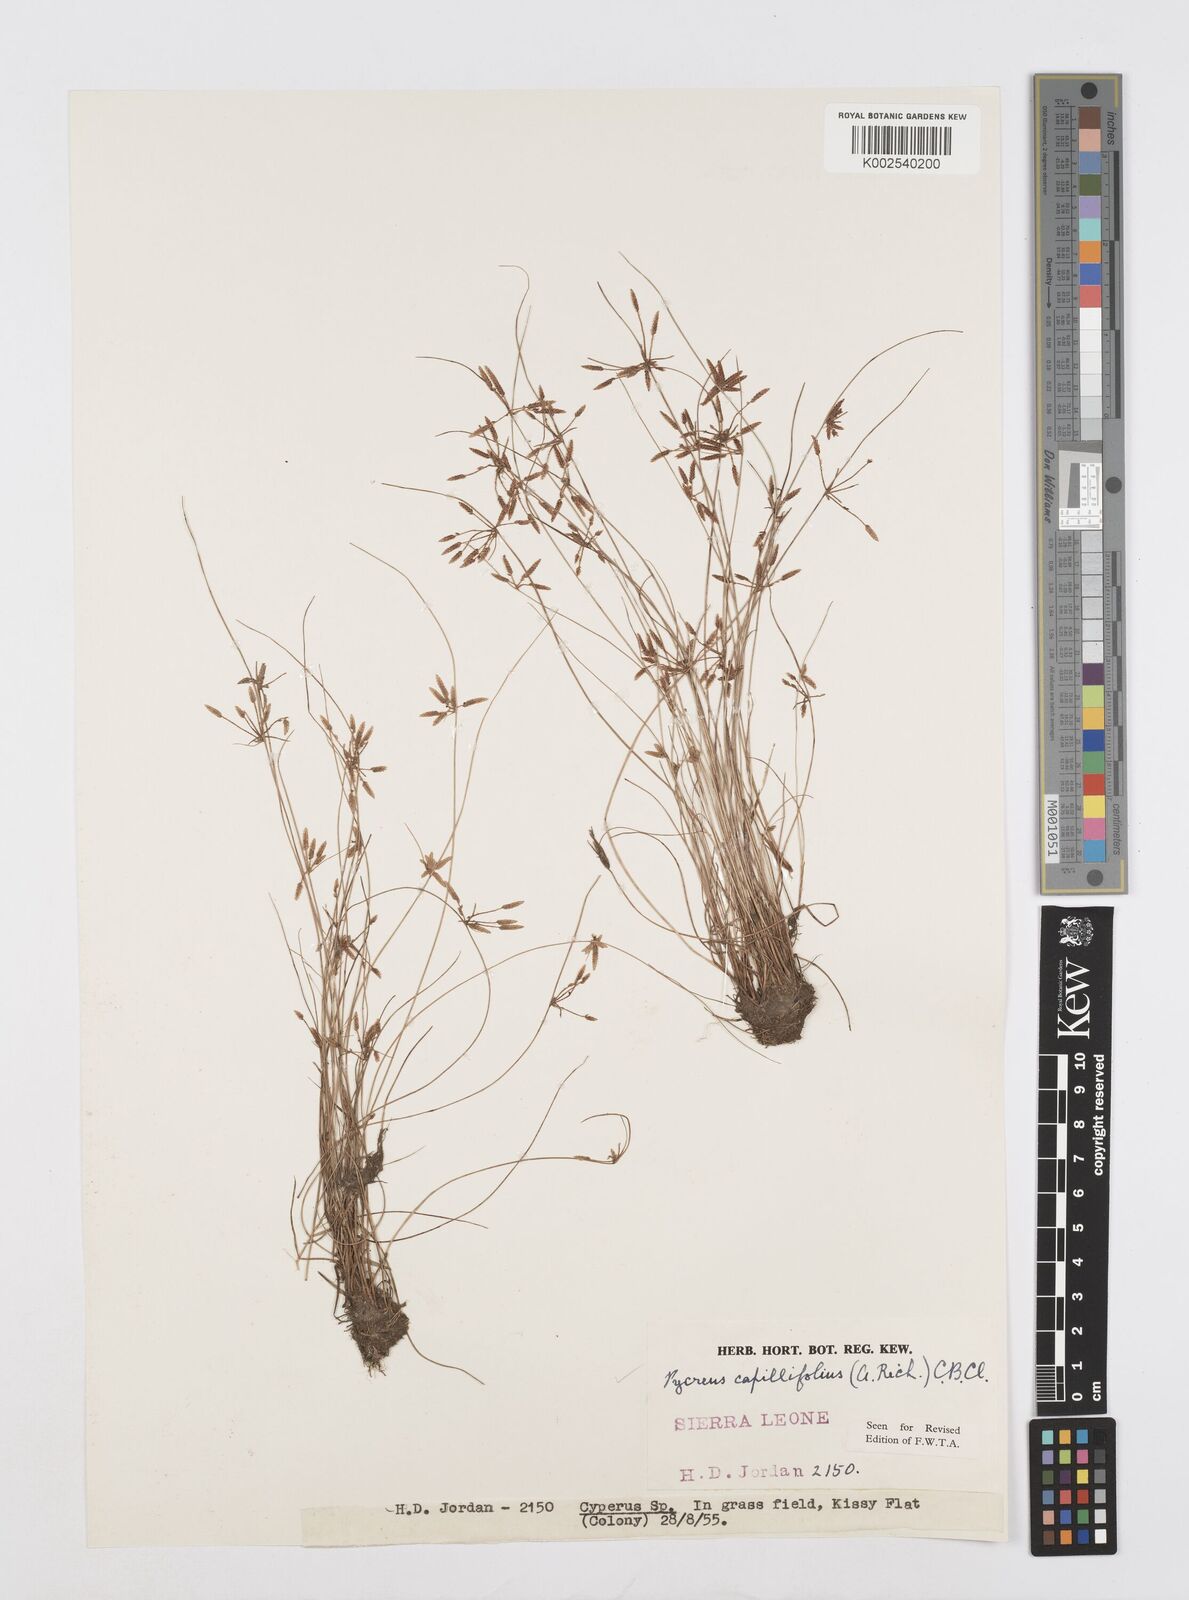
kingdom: Plantae
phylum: Tracheophyta
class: Liliopsida
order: Poales
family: Cyperaceae
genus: Cyperus
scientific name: Cyperus capillifolius
